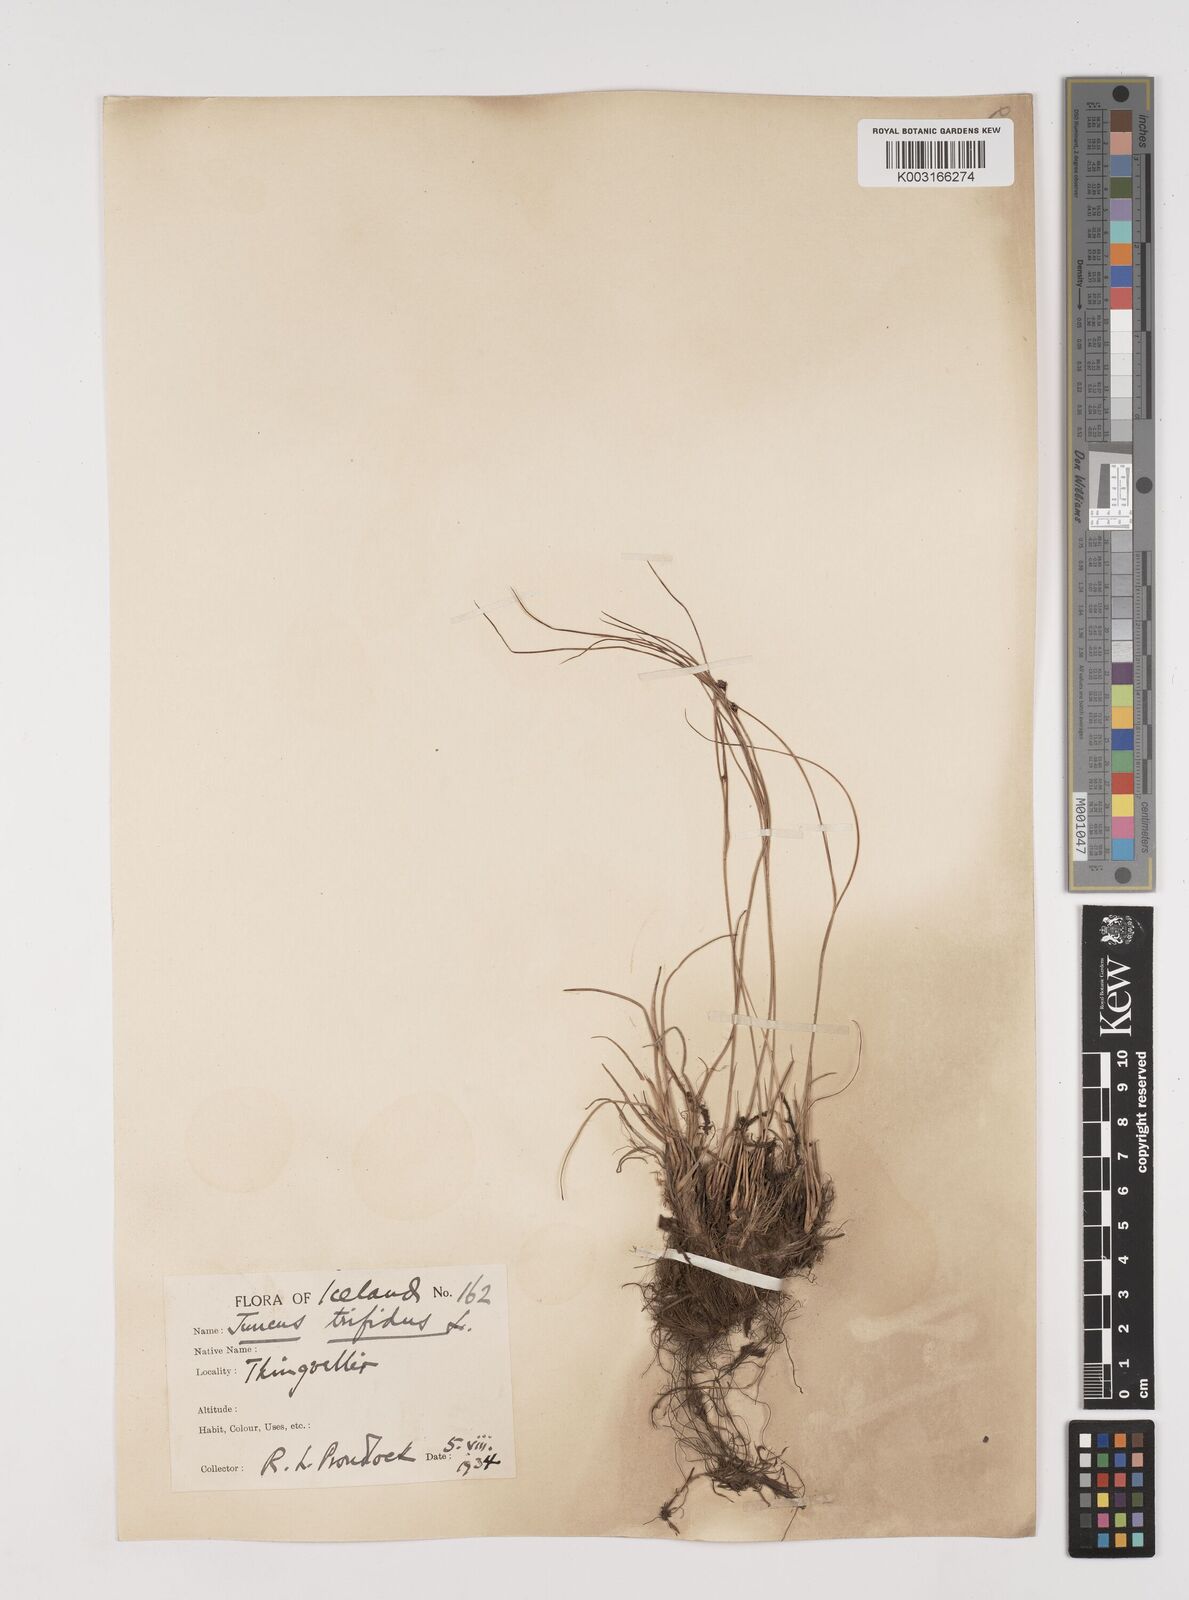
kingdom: Plantae
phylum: Tracheophyta
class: Liliopsida
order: Poales
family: Juncaceae
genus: Oreojuncus
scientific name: Oreojuncus trifidus
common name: Highland rush
